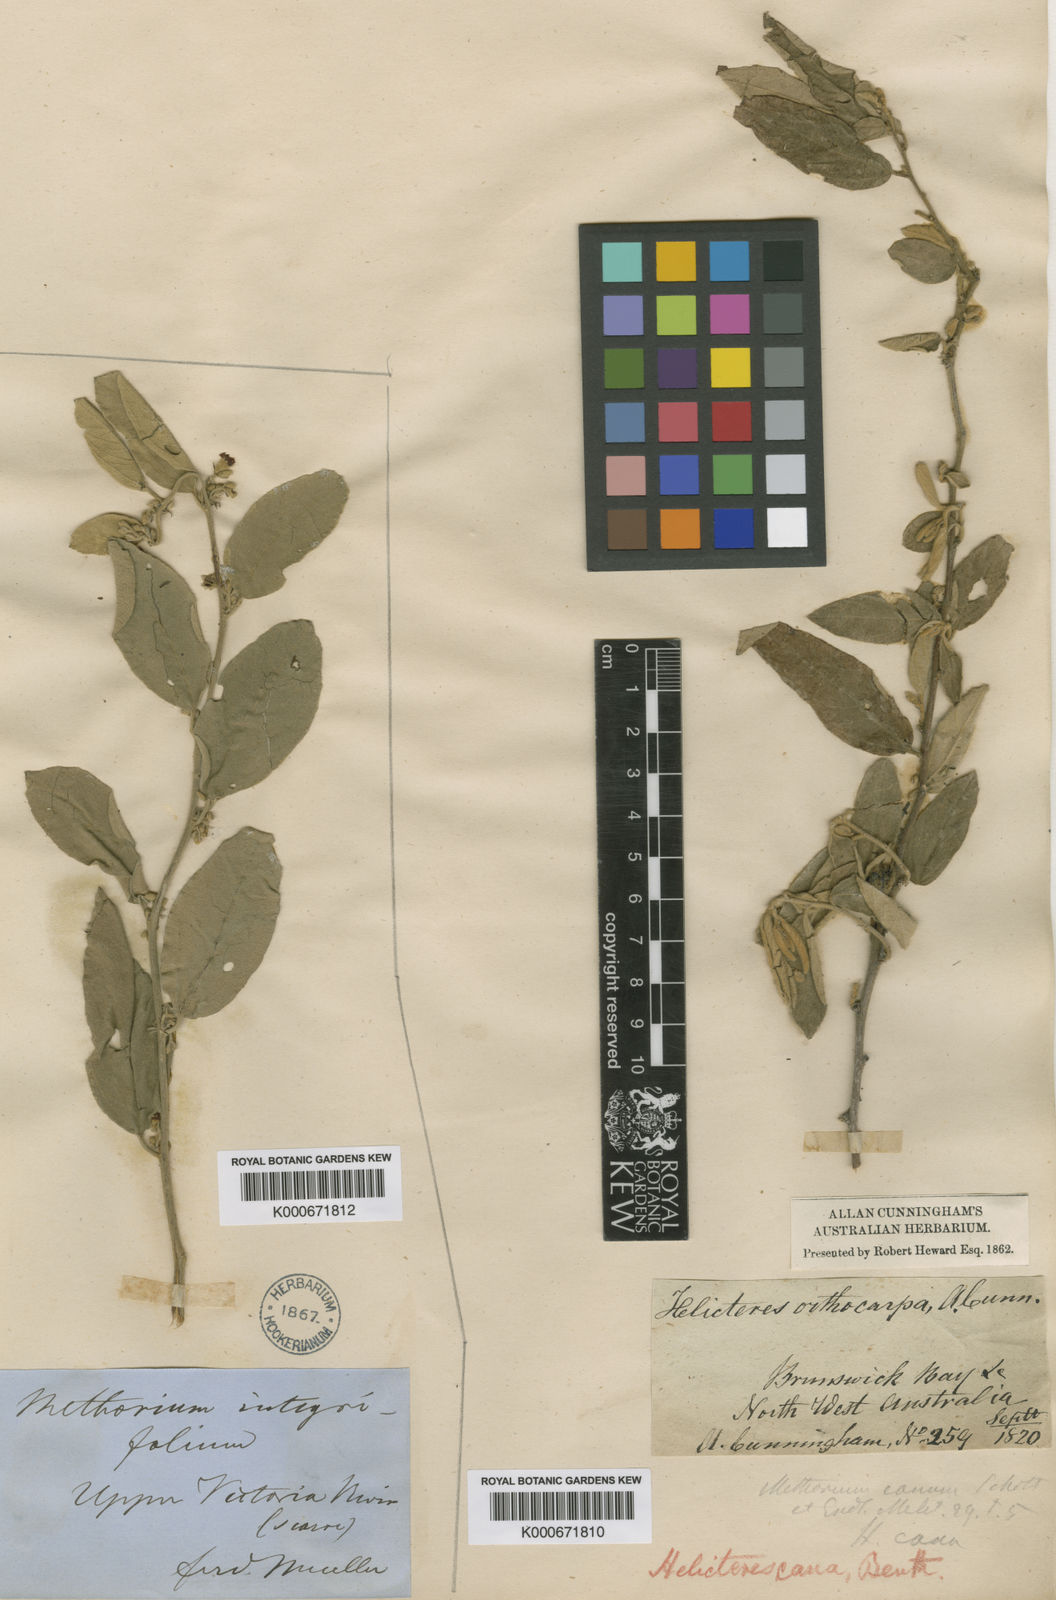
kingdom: Plantae
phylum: Tracheophyta
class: Magnoliopsida
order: Malvales
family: Malvaceae
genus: Helicteres
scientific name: Helicteres cana
